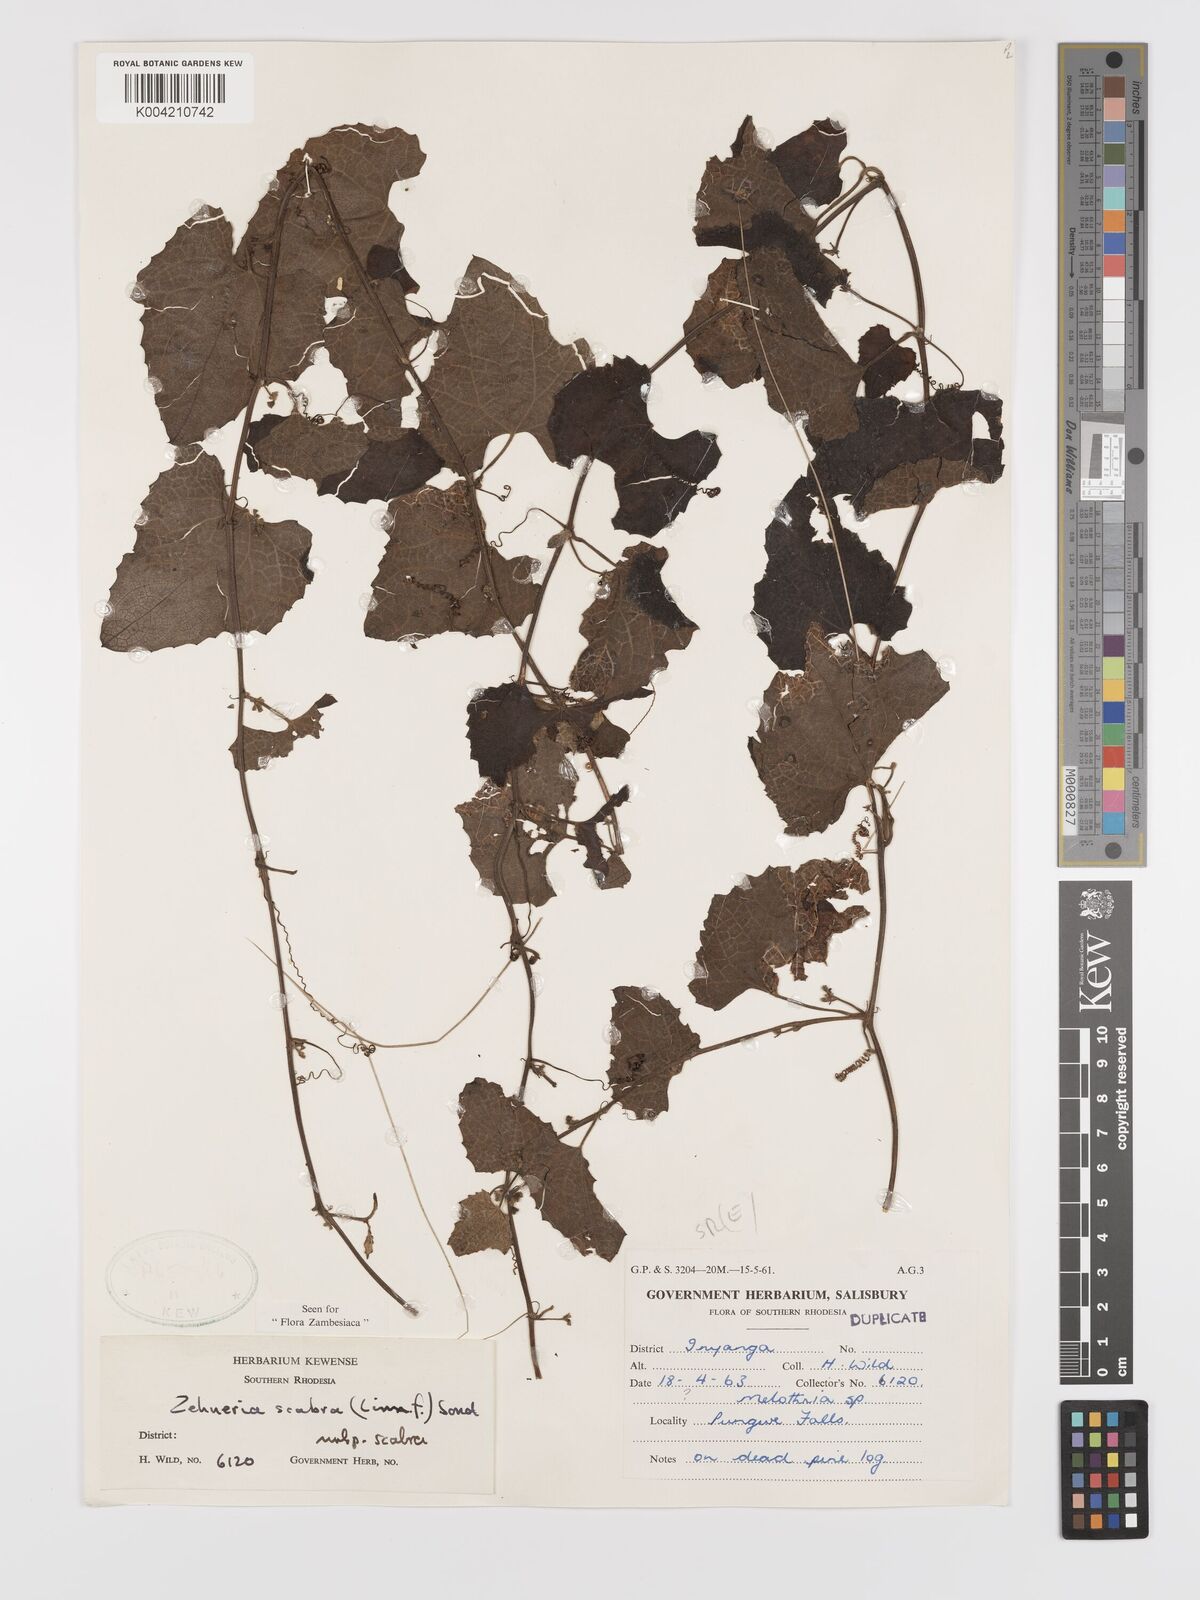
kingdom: Plantae
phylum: Tracheophyta
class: Magnoliopsida
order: Cucurbitales
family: Cucurbitaceae
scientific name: Cucurbitaceae
